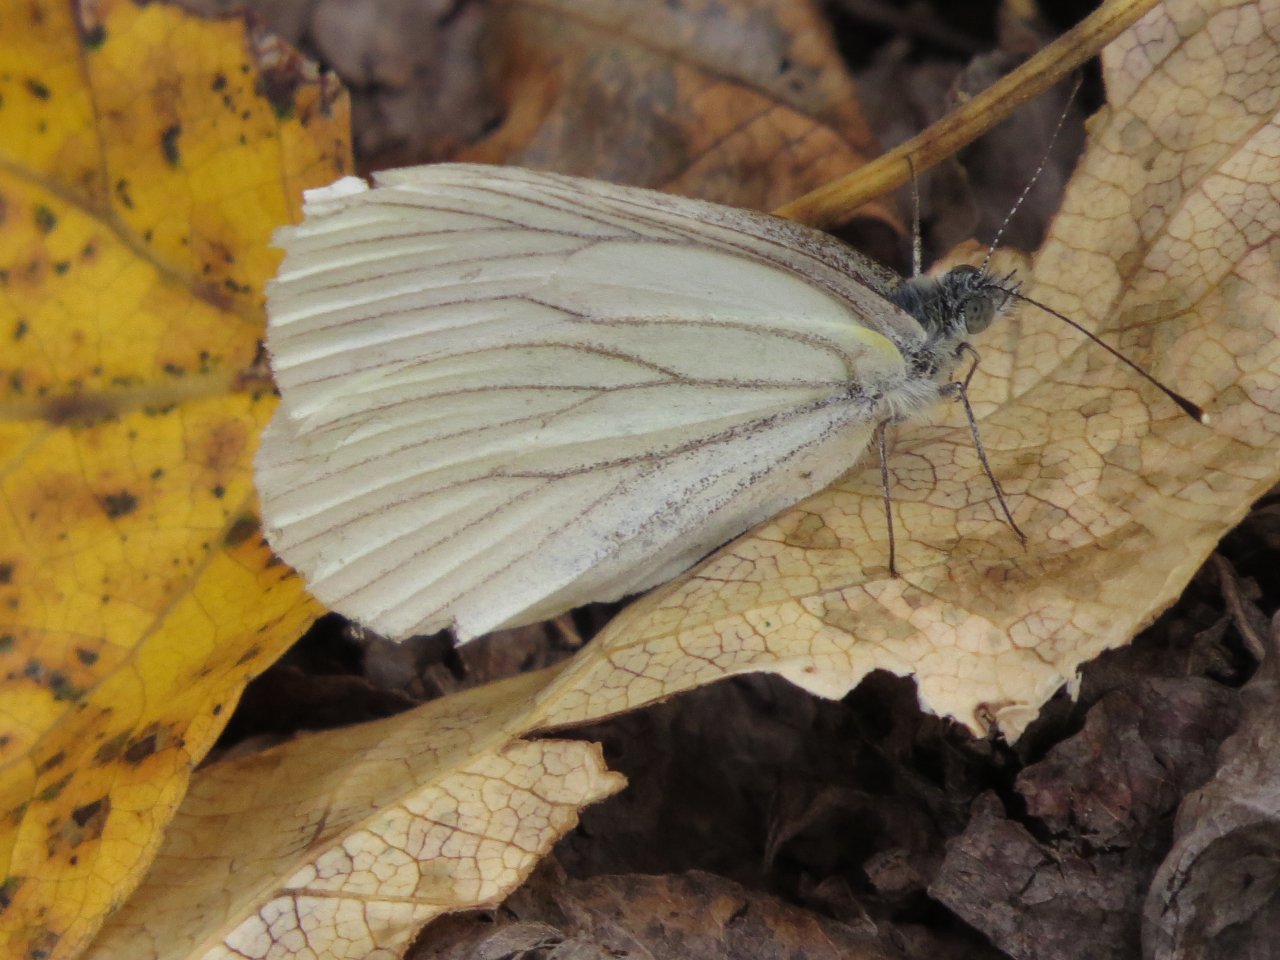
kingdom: Animalia
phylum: Arthropoda
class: Insecta
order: Lepidoptera
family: Pieridae
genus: Pieris
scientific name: Pieris oleracea
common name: Mustard White
